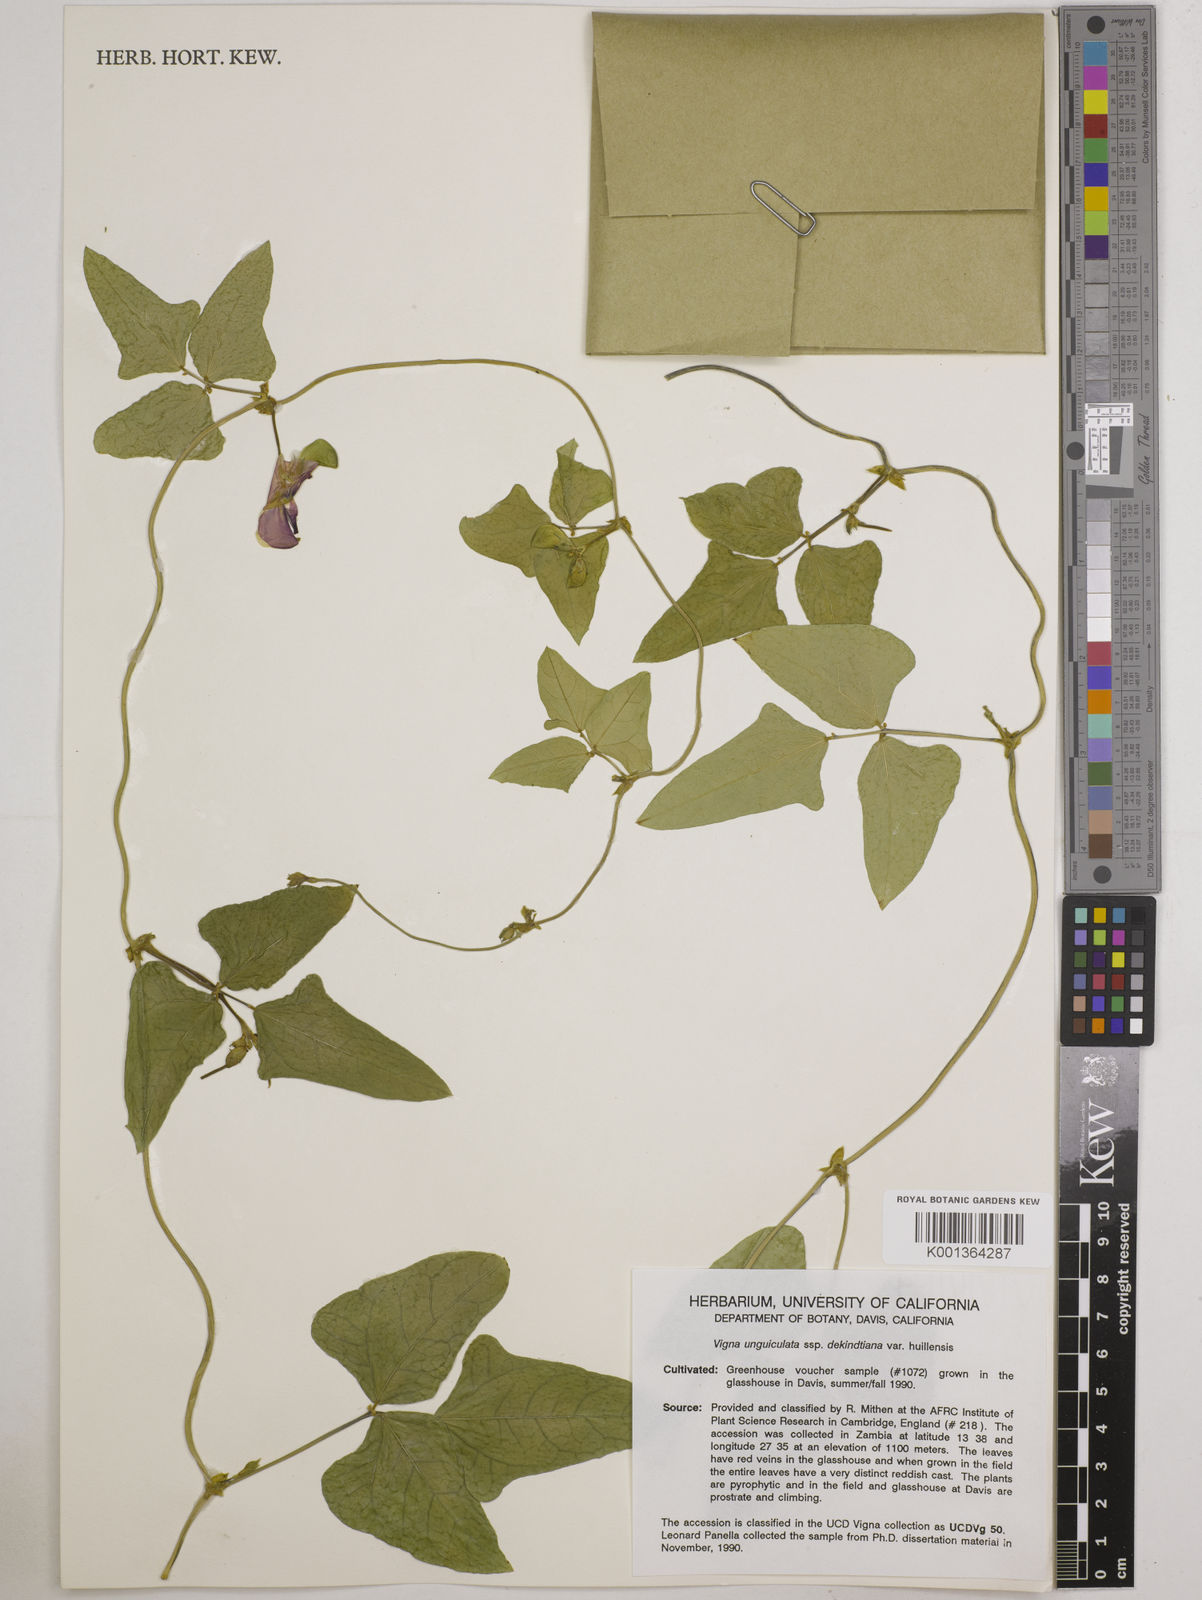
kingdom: Plantae
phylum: Tracheophyta
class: Magnoliopsida
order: Fabales
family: Fabaceae
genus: Vigna
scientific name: Vigna
